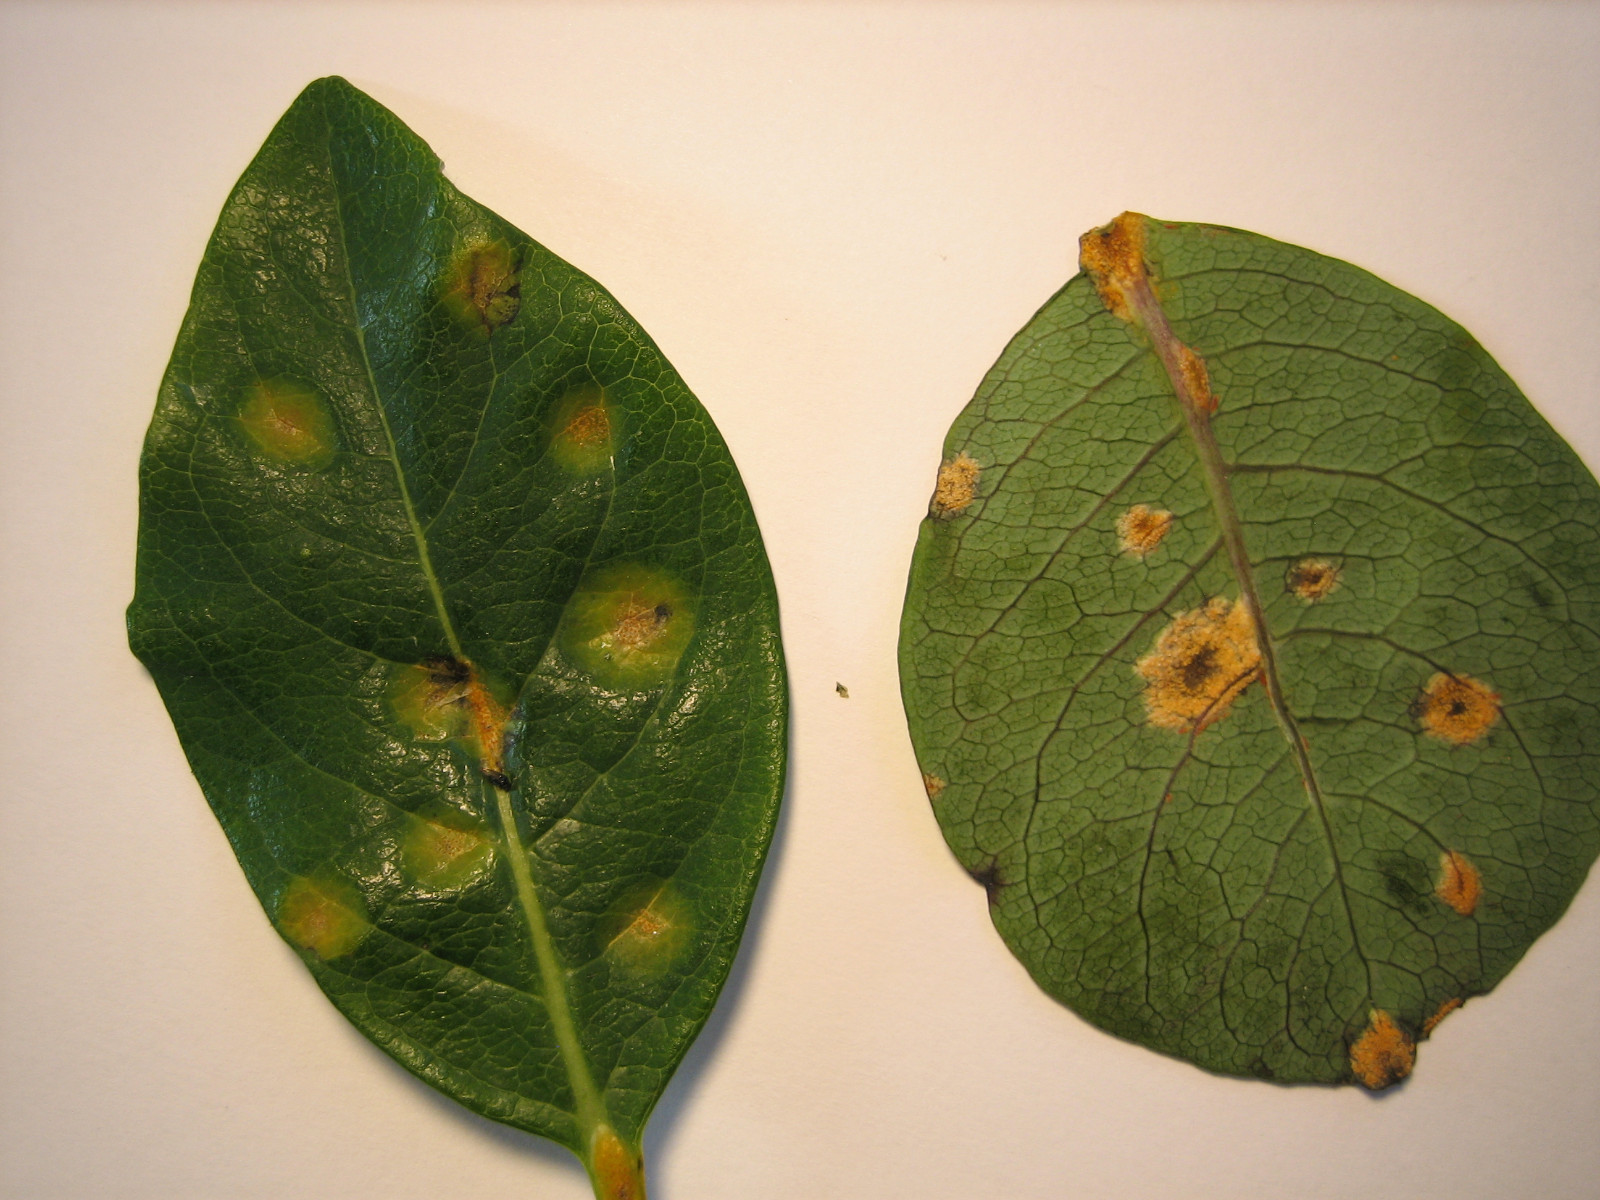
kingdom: Fungi
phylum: Basidiomycota
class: Pucciniomycetes
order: Pucciniales
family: Pucciniaceae
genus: Puccinia
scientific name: Puccinia festucae
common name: gedeblad-tvecellerust
